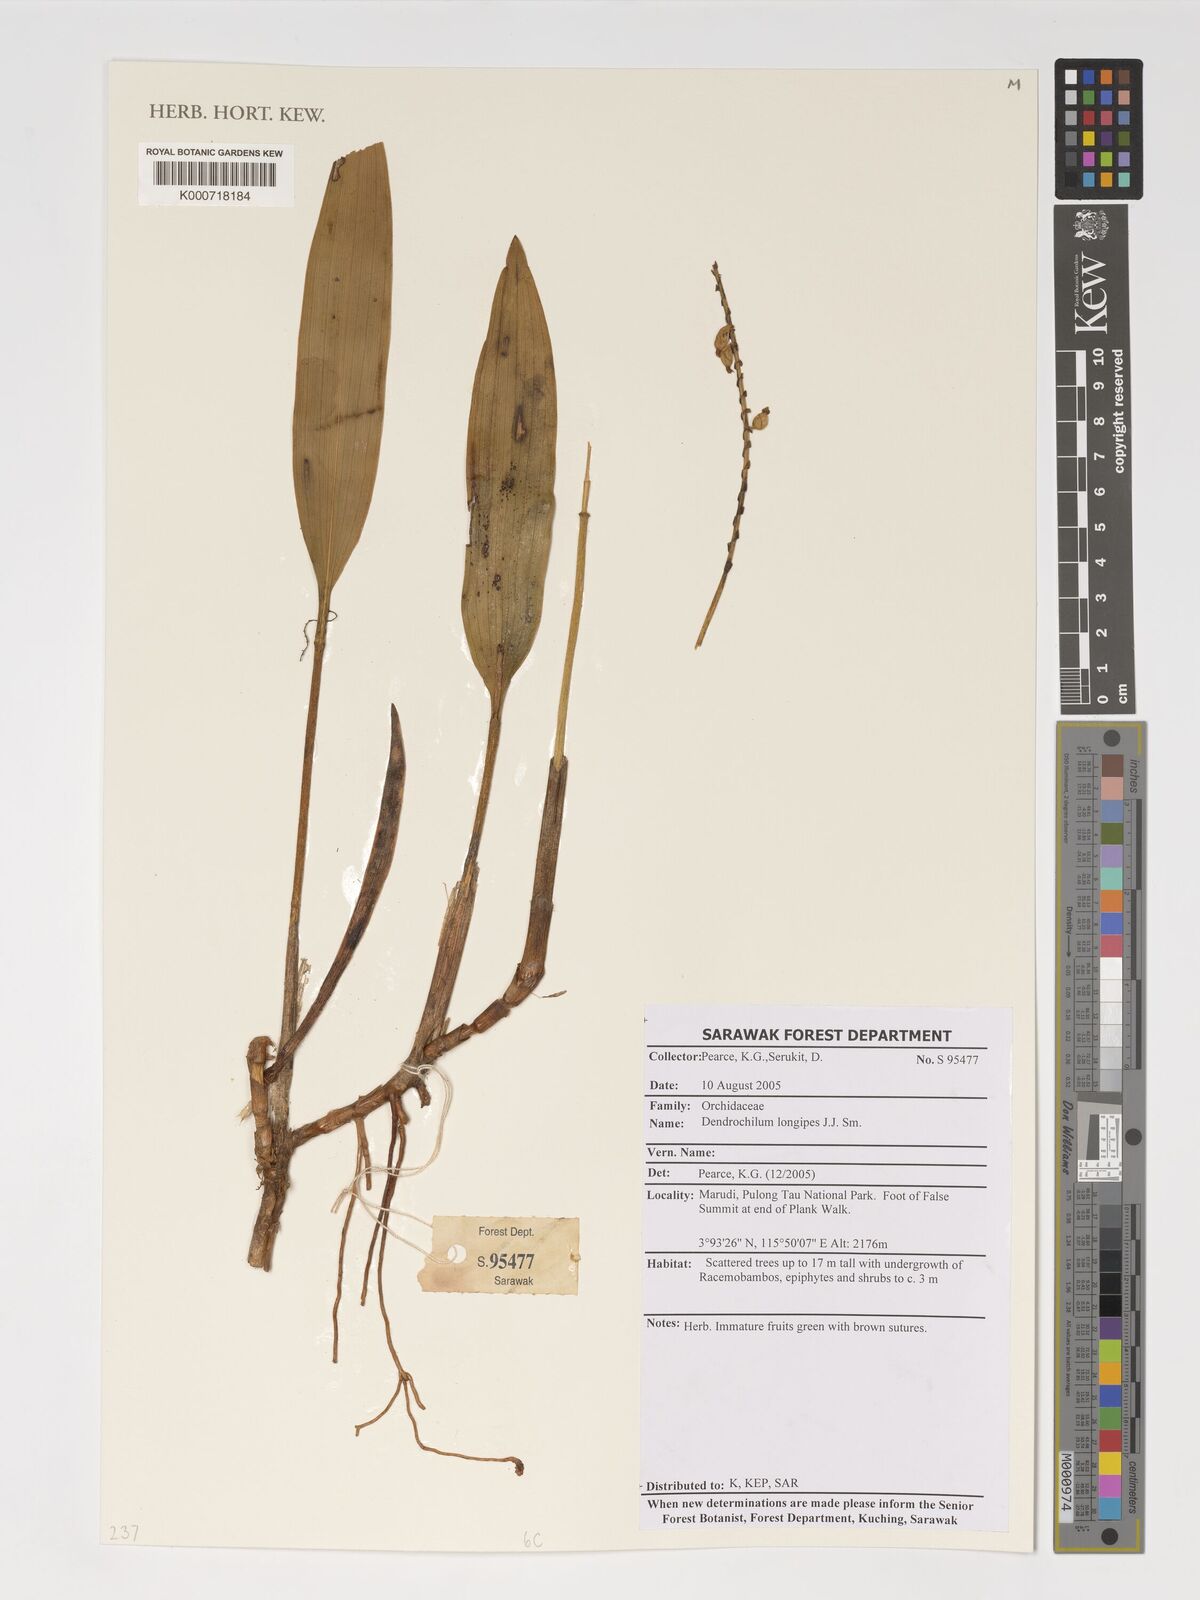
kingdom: Plantae
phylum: Tracheophyta
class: Liliopsida
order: Asparagales
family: Orchidaceae
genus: Coelogyne
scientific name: Coelogyne mantis
